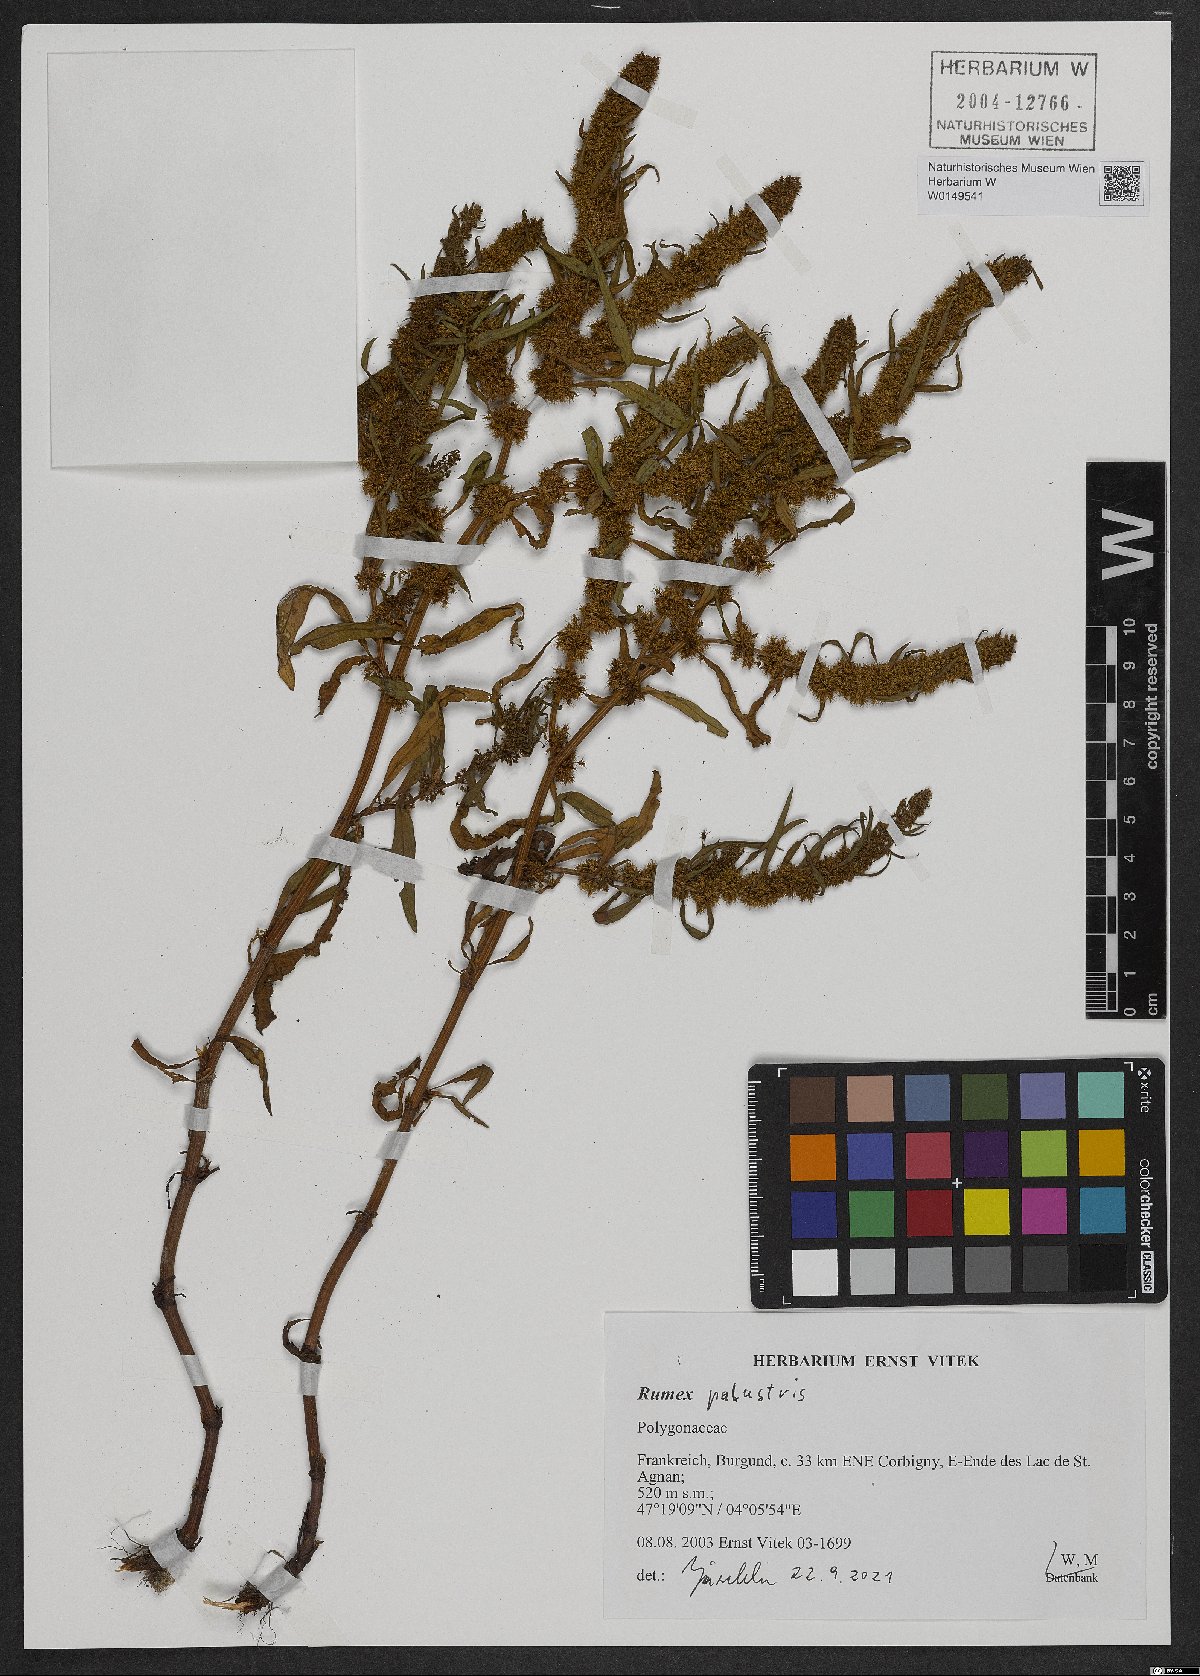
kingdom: Plantae
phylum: Tracheophyta
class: Magnoliopsida
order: Caryophyllales
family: Polygonaceae
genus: Rumex
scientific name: Rumex maritimus
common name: Golden dock
